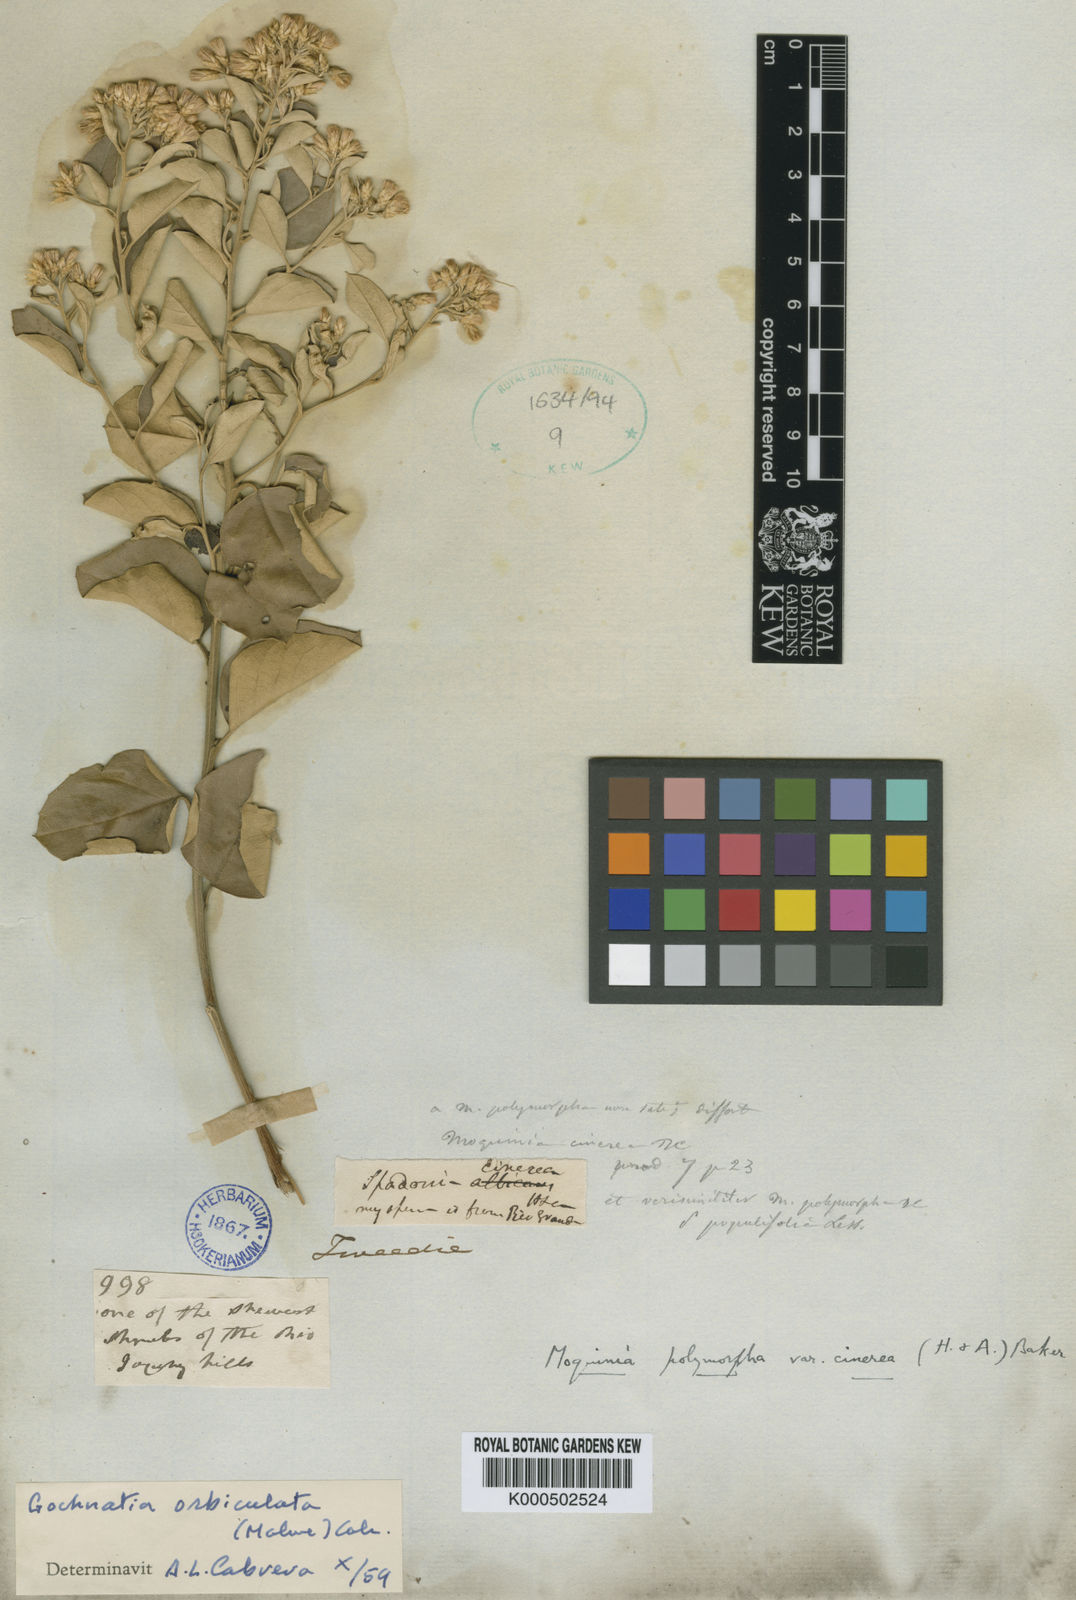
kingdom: Plantae
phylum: Tracheophyta
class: Magnoliopsida
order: Asterales
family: Asteraceae
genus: Moquiniastrum
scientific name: Moquiniastrum cinereum
